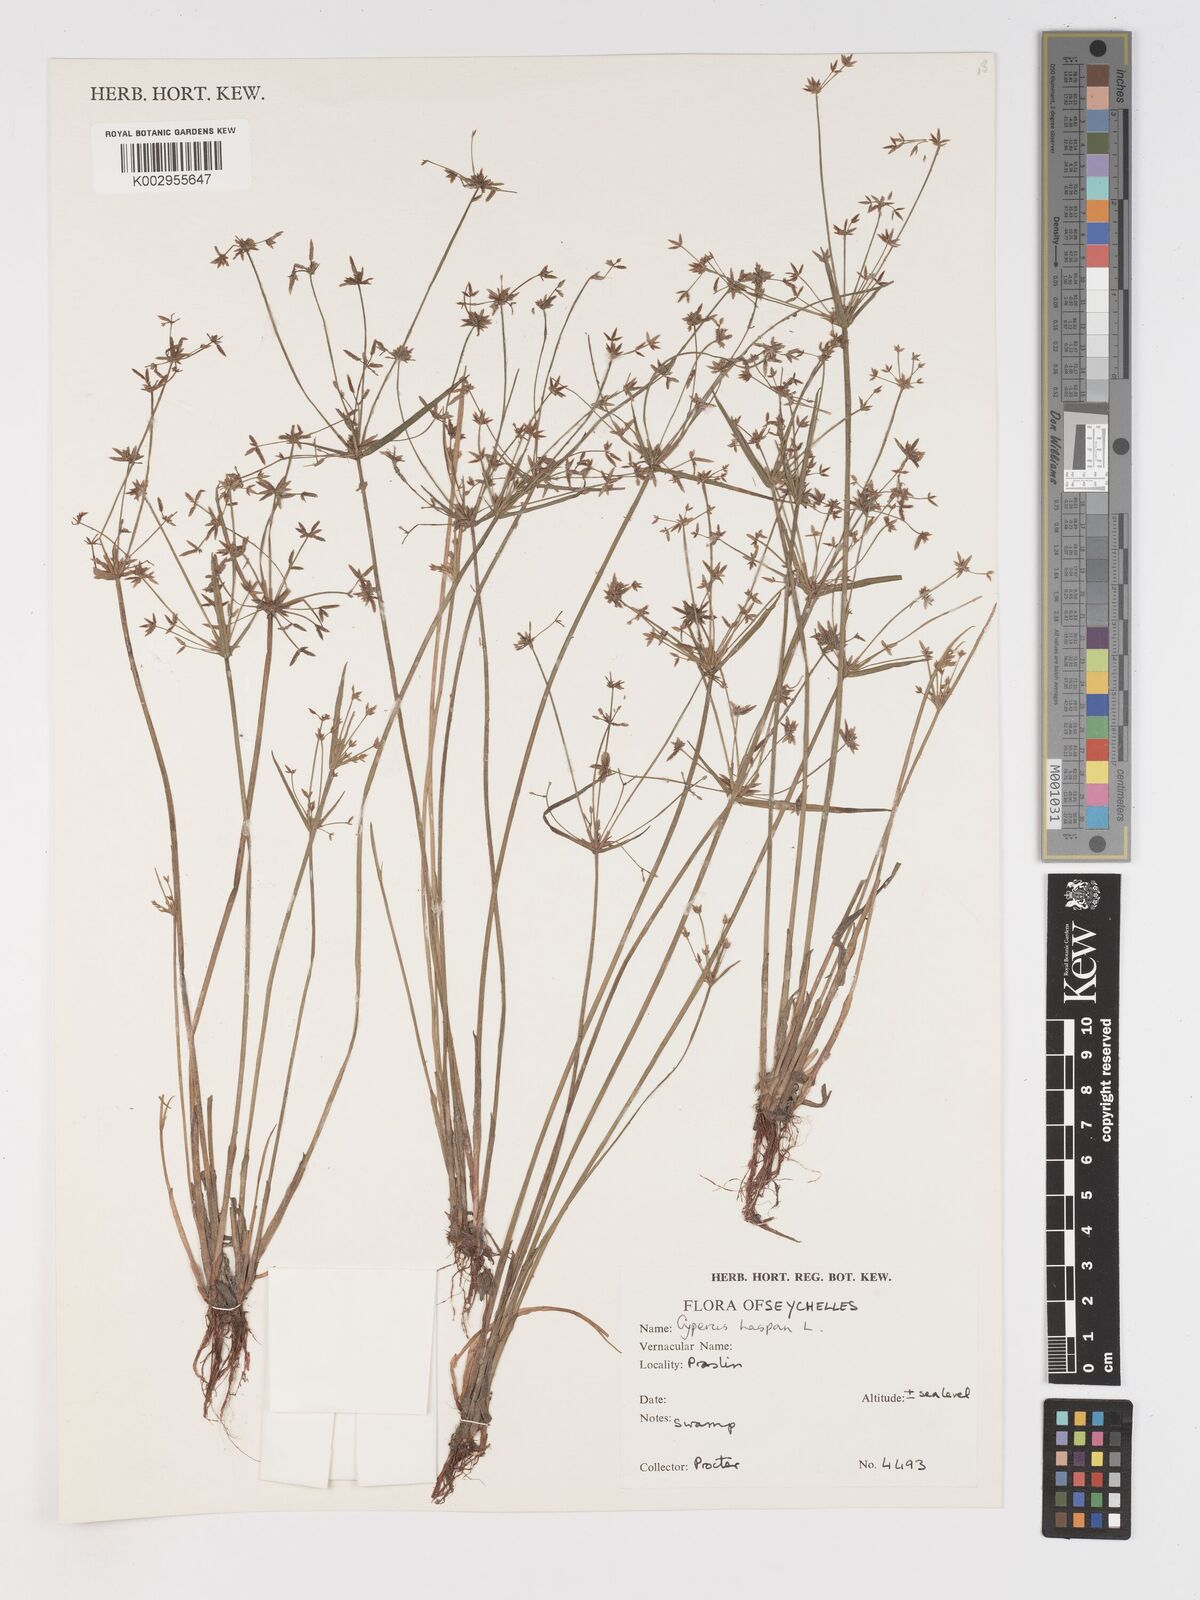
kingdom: Plantae
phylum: Tracheophyta
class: Liliopsida
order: Poales
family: Cyperaceae
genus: Cyperus
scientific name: Cyperus haspan
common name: Haspan flatsedge
